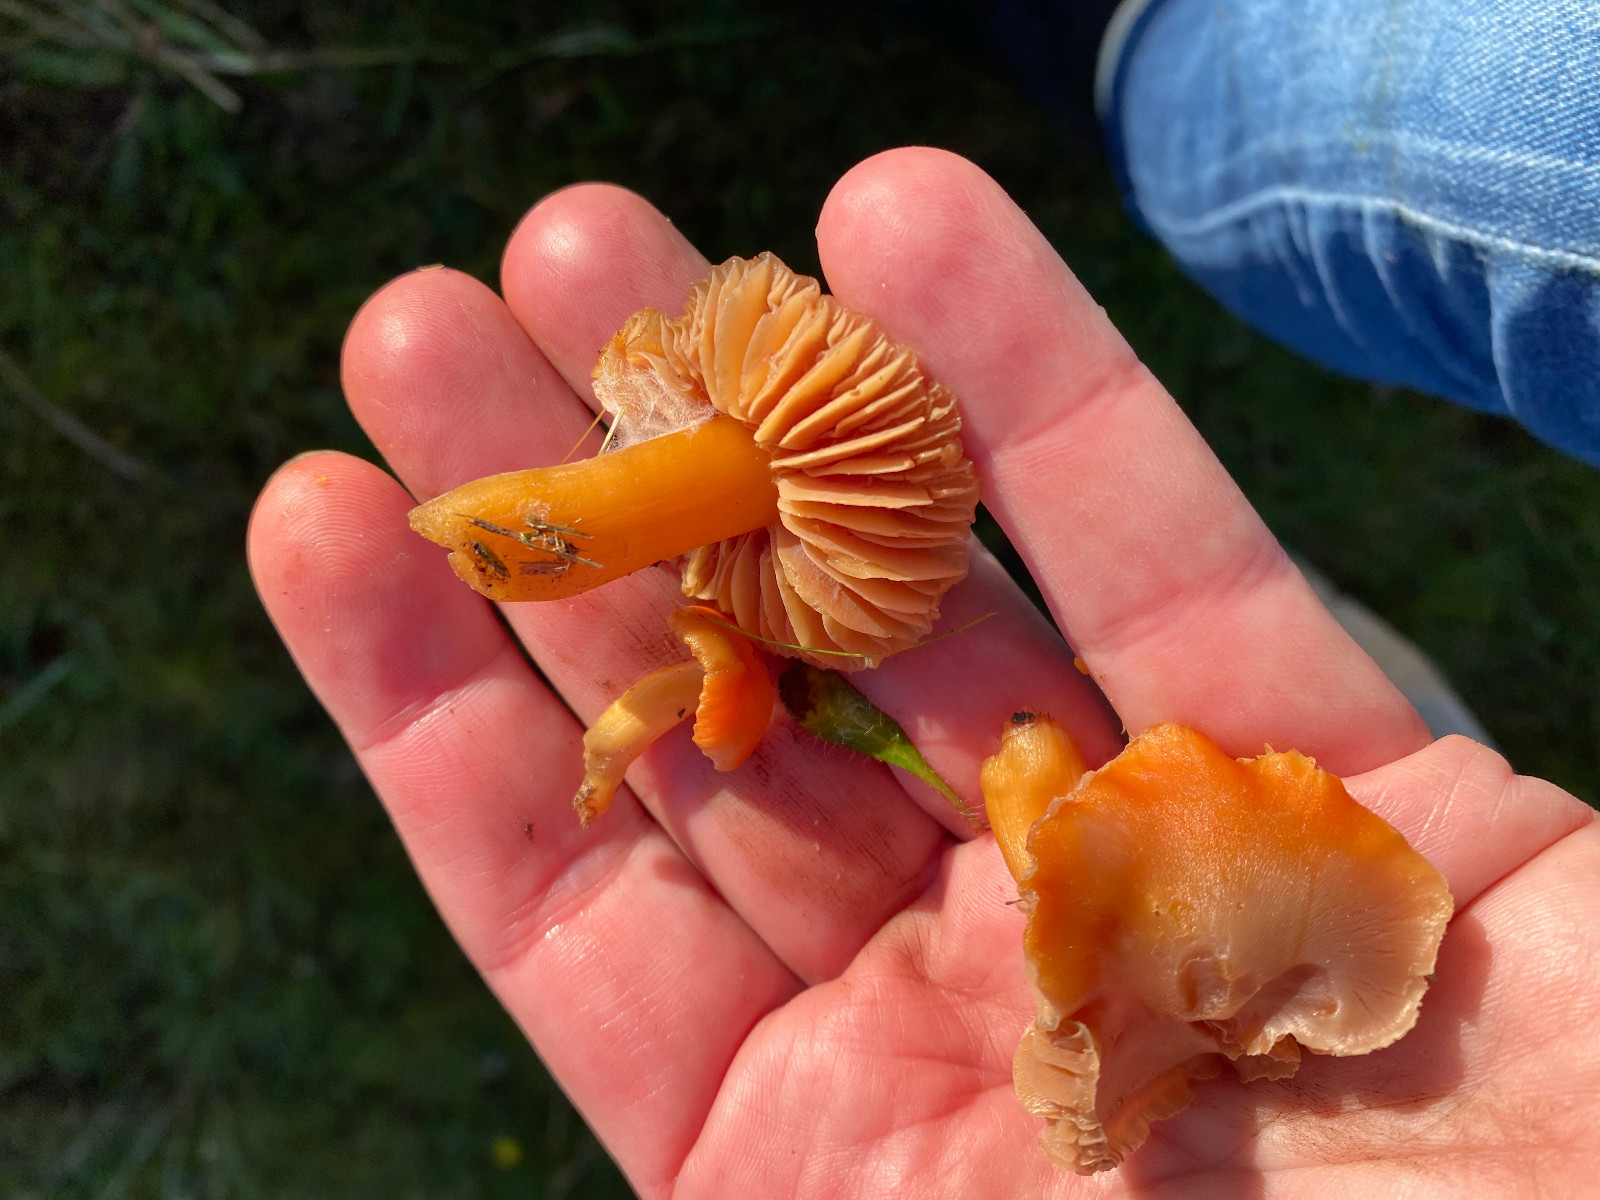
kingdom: Fungi
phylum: Basidiomycota
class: Agaricomycetes
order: Agaricales
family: Hygrophoraceae
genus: Hygrocybe
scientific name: Hygrocybe quieta
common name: tæge-vokshat
